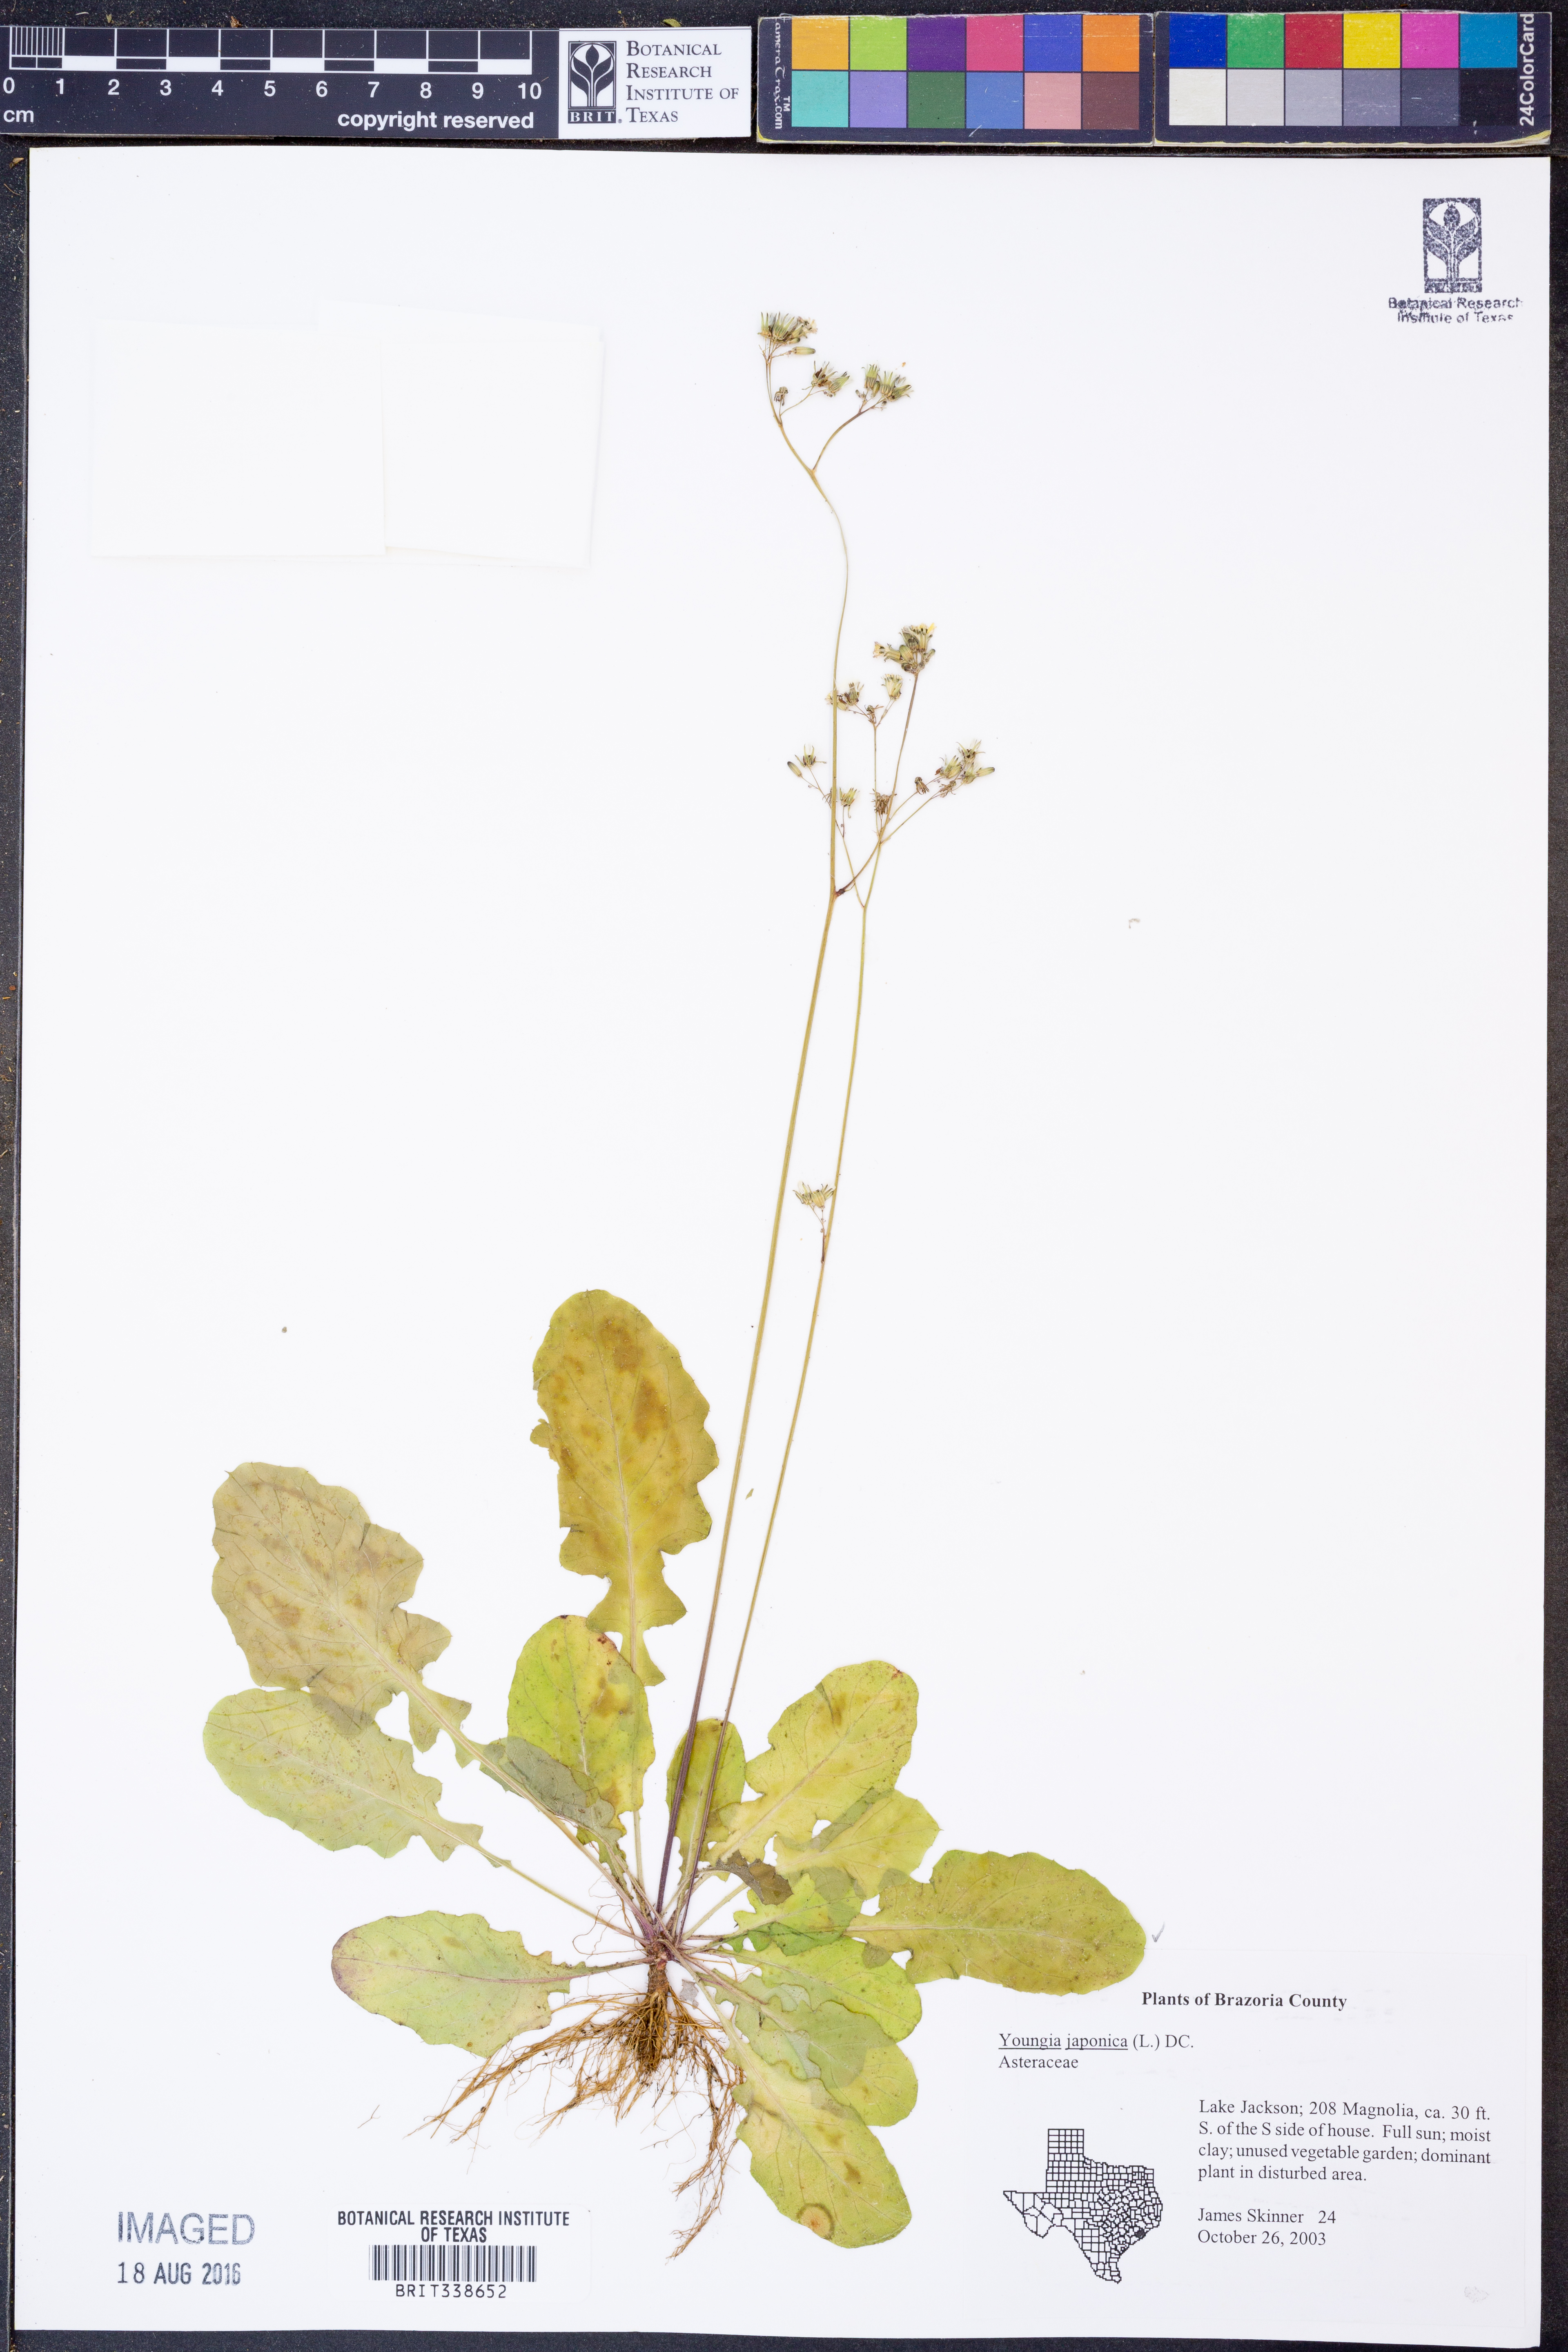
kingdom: Plantae
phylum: Tracheophyta
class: Magnoliopsida
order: Asterales
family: Asteraceae
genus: Youngia
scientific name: Youngia japonica
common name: Oriental false hawksbeard
